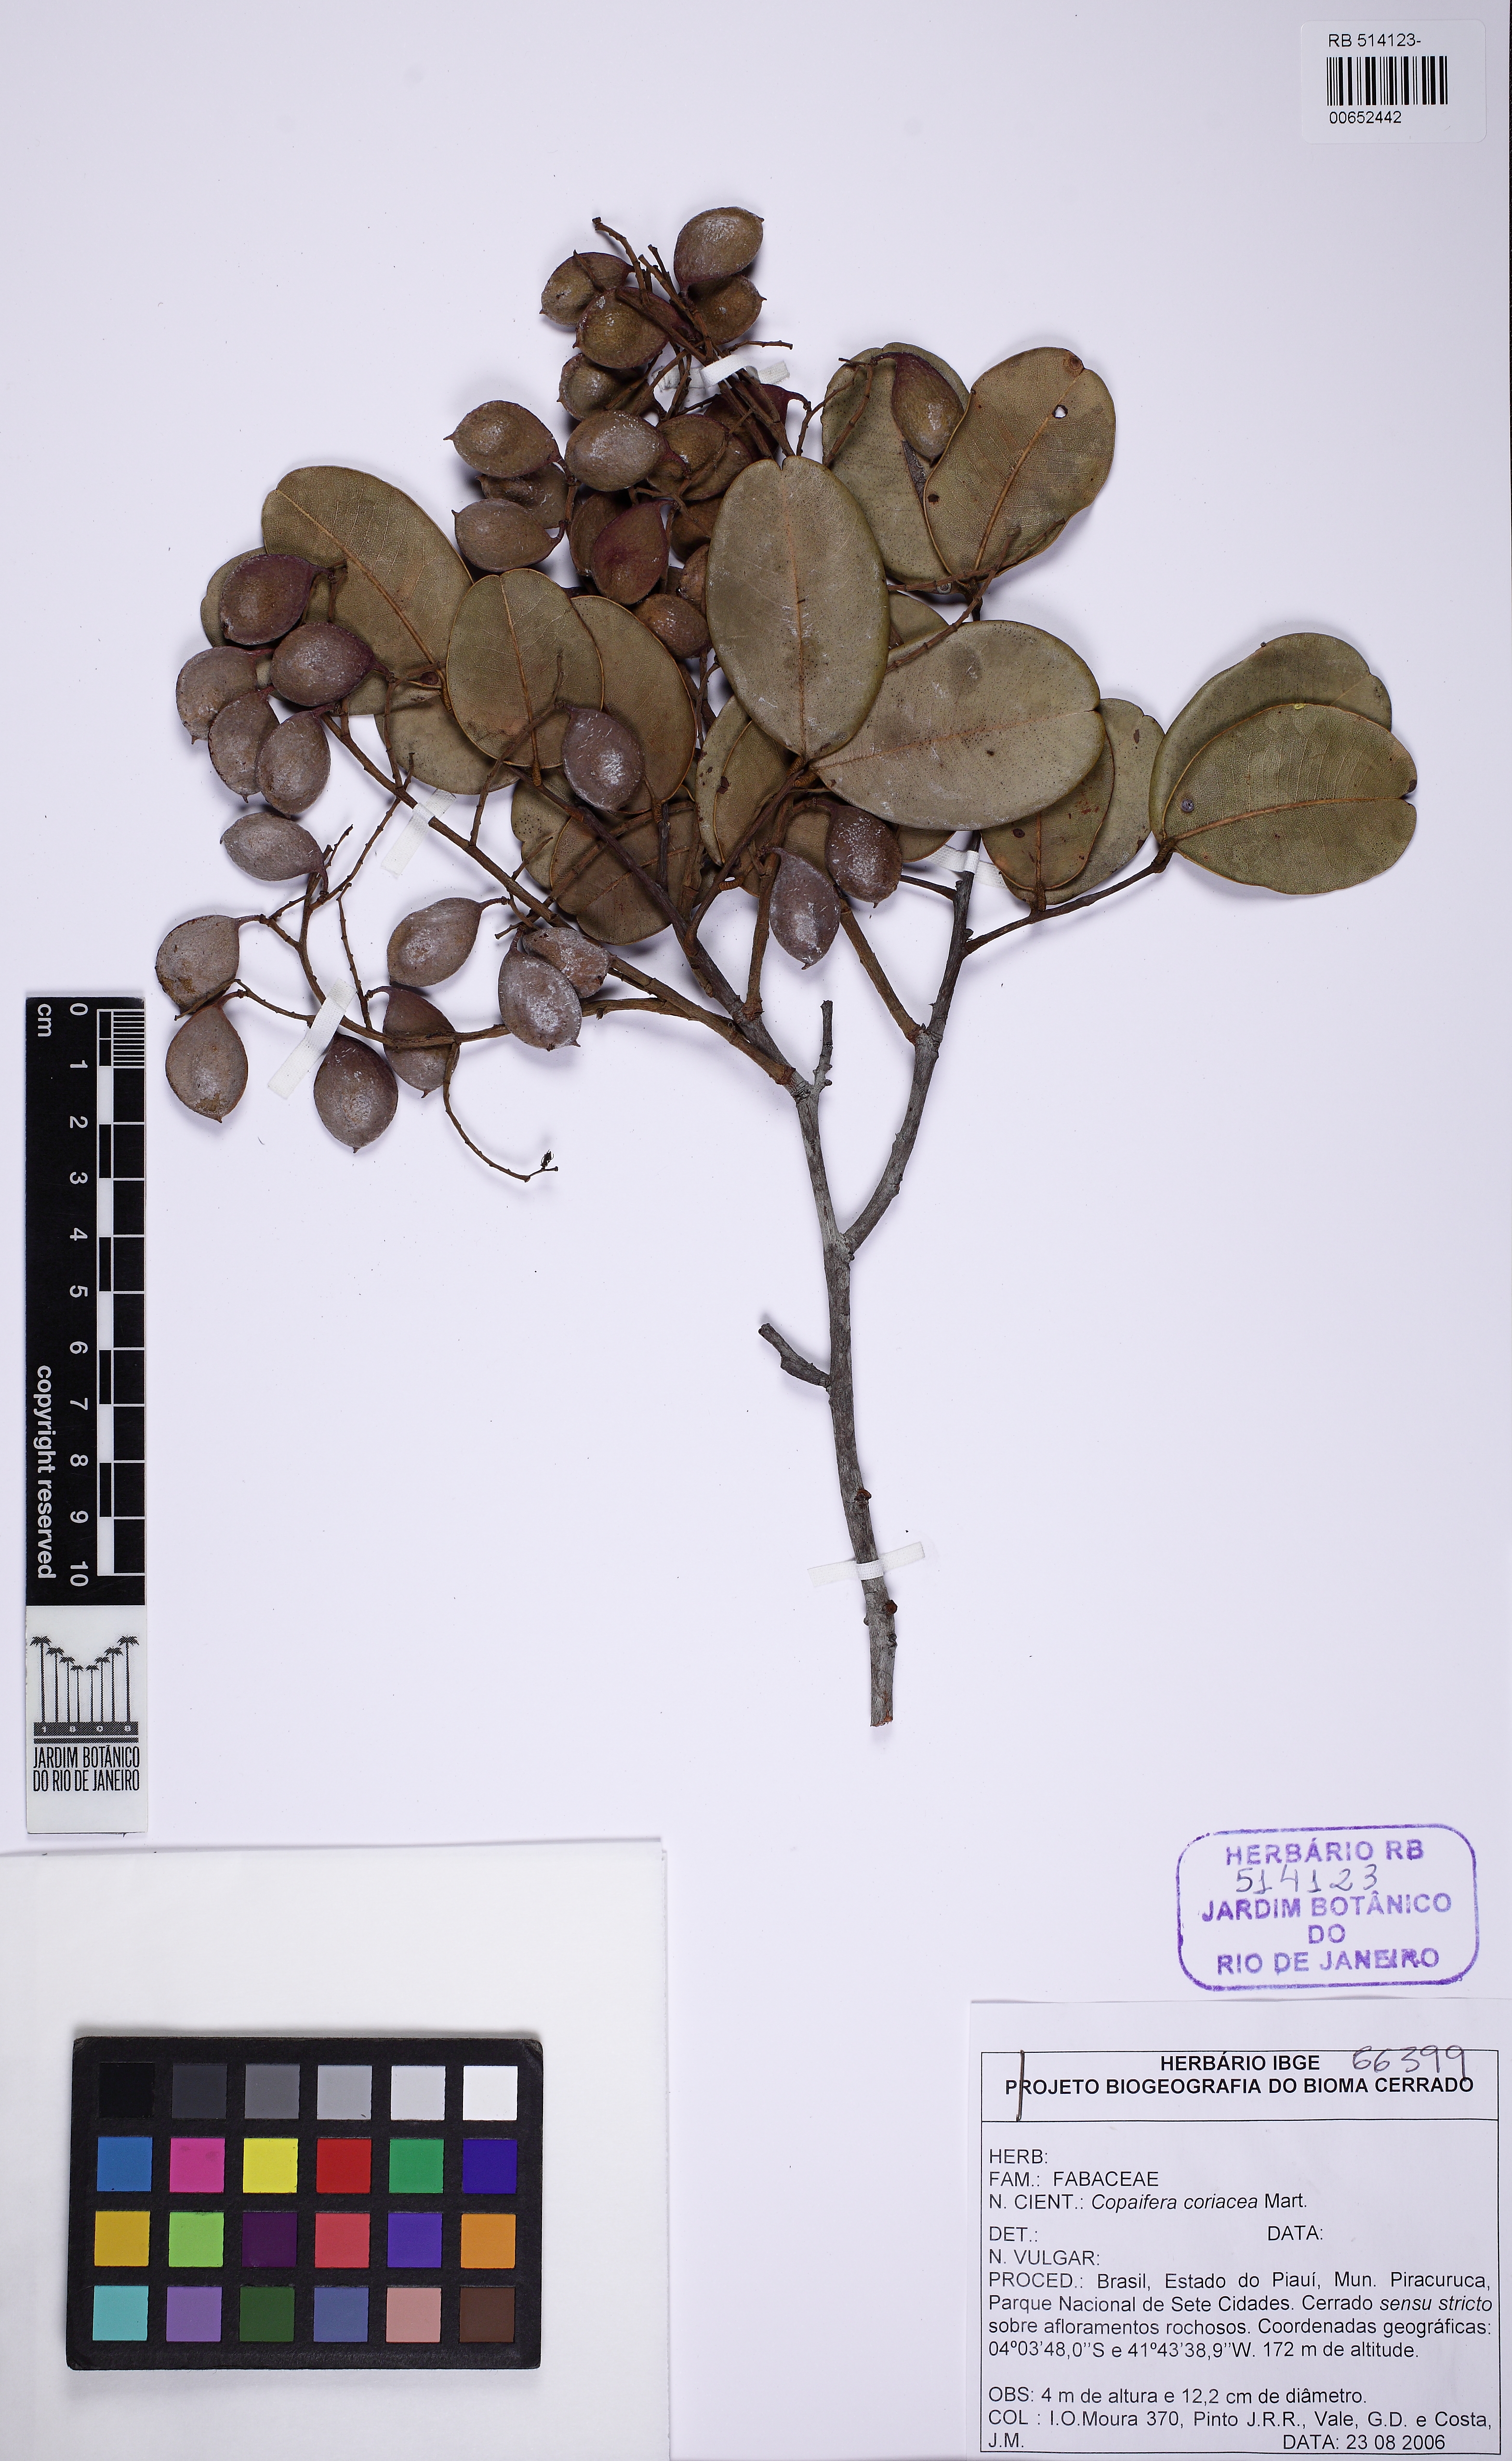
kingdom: Plantae
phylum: Tracheophyta
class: Magnoliopsida
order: Fabales
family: Fabaceae
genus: Copaifera
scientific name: Copaifera coriacea
